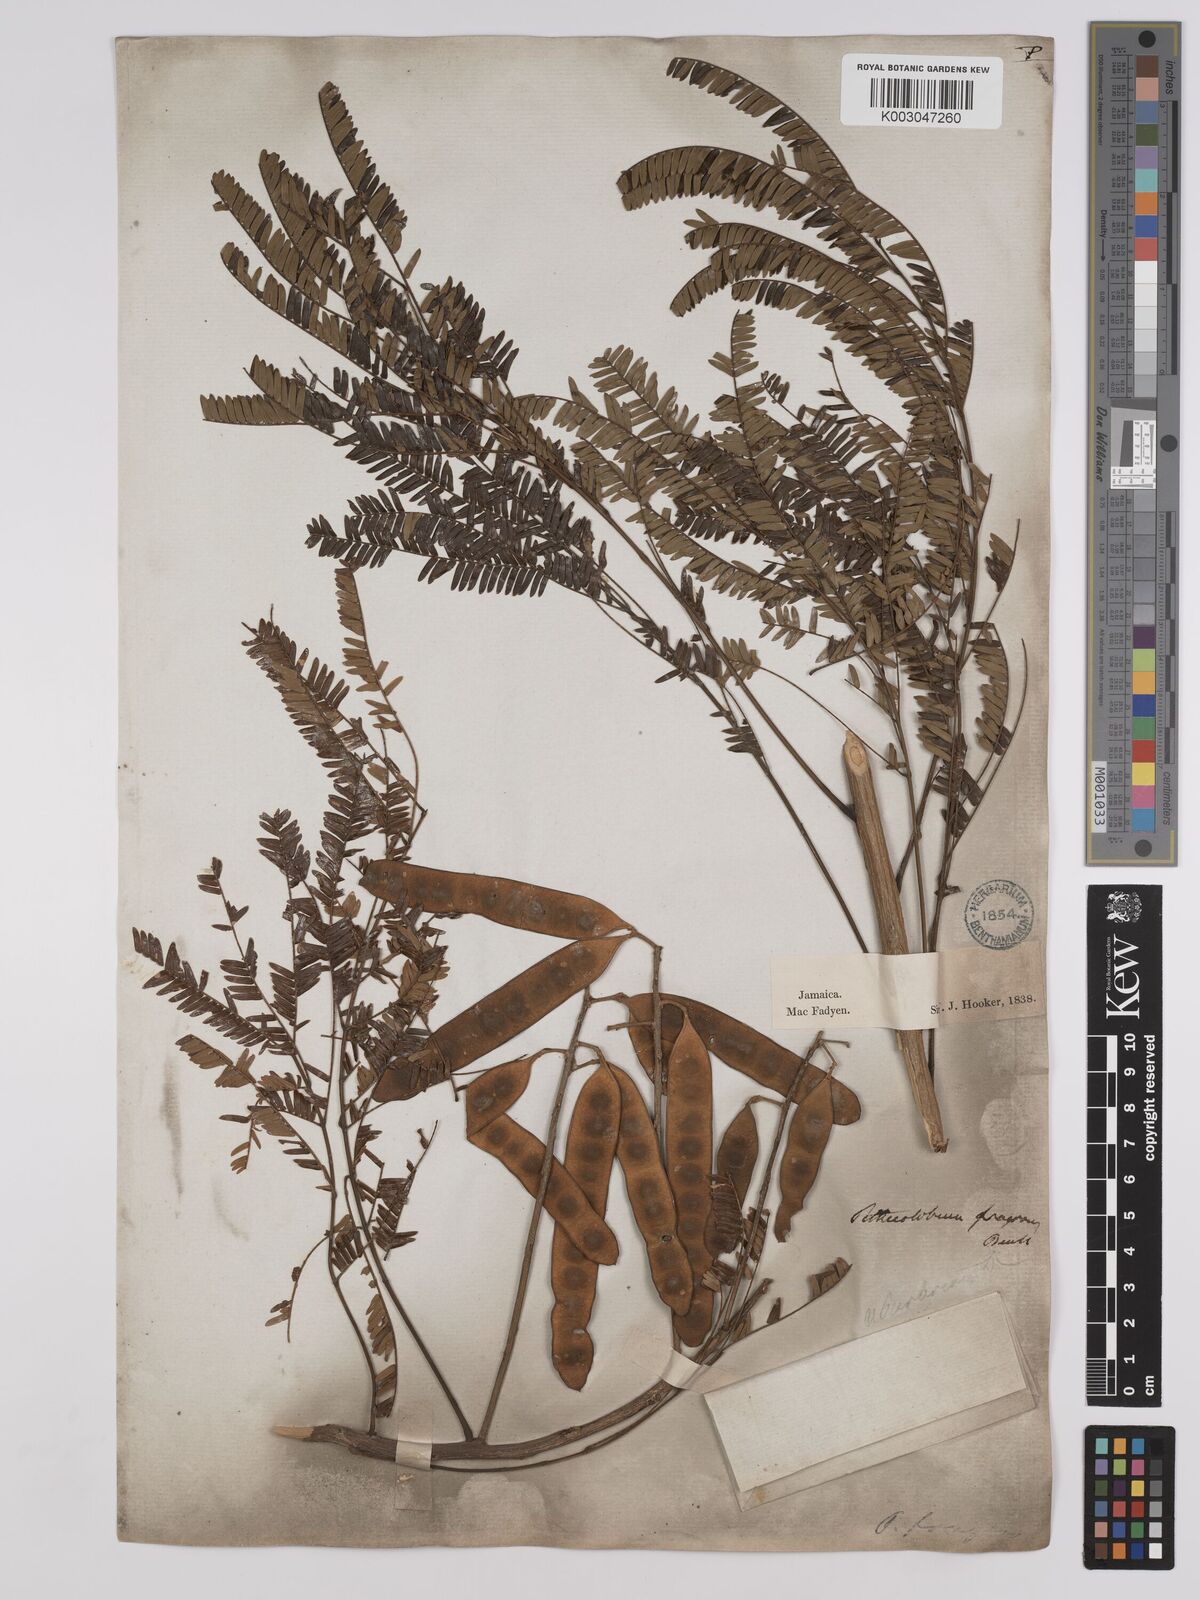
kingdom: Plantae
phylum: Tracheophyta
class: Magnoliopsida
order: Fabales
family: Fabaceae
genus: Albizia
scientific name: Albizia
